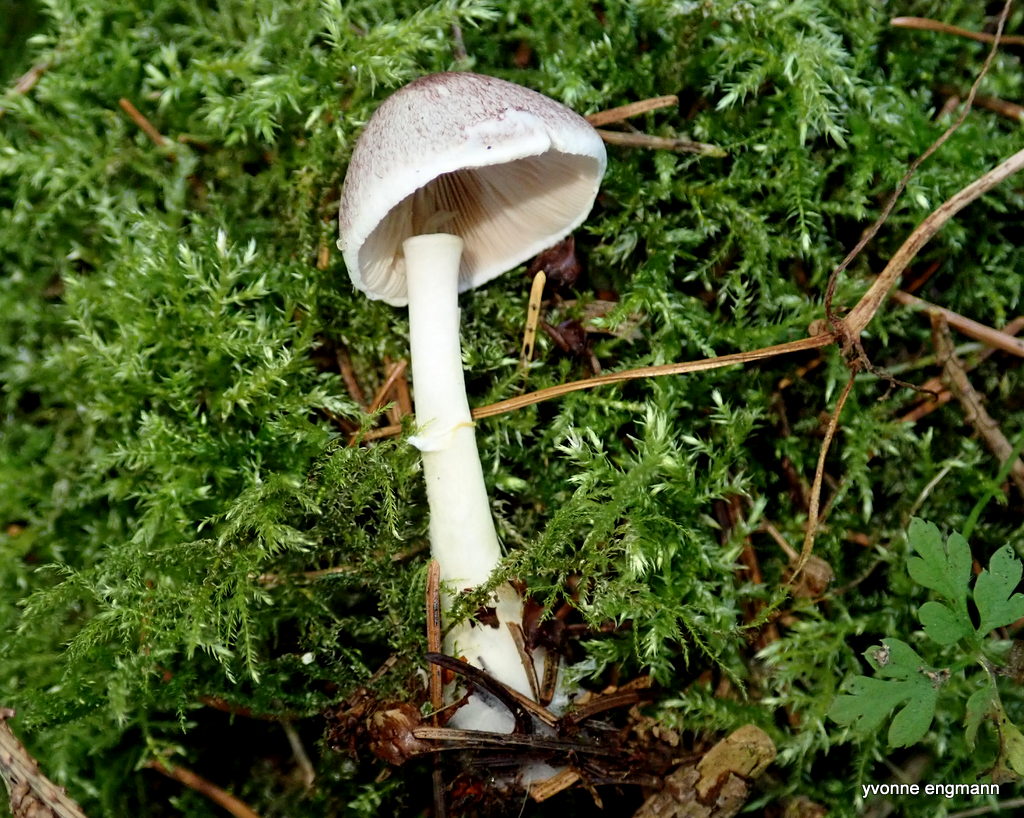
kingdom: Fungi
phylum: Basidiomycota
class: Agaricomycetes
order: Agaricales
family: Agaricaceae
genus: Agaricus
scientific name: Agaricus dulcidulus
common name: blegrød champignon
